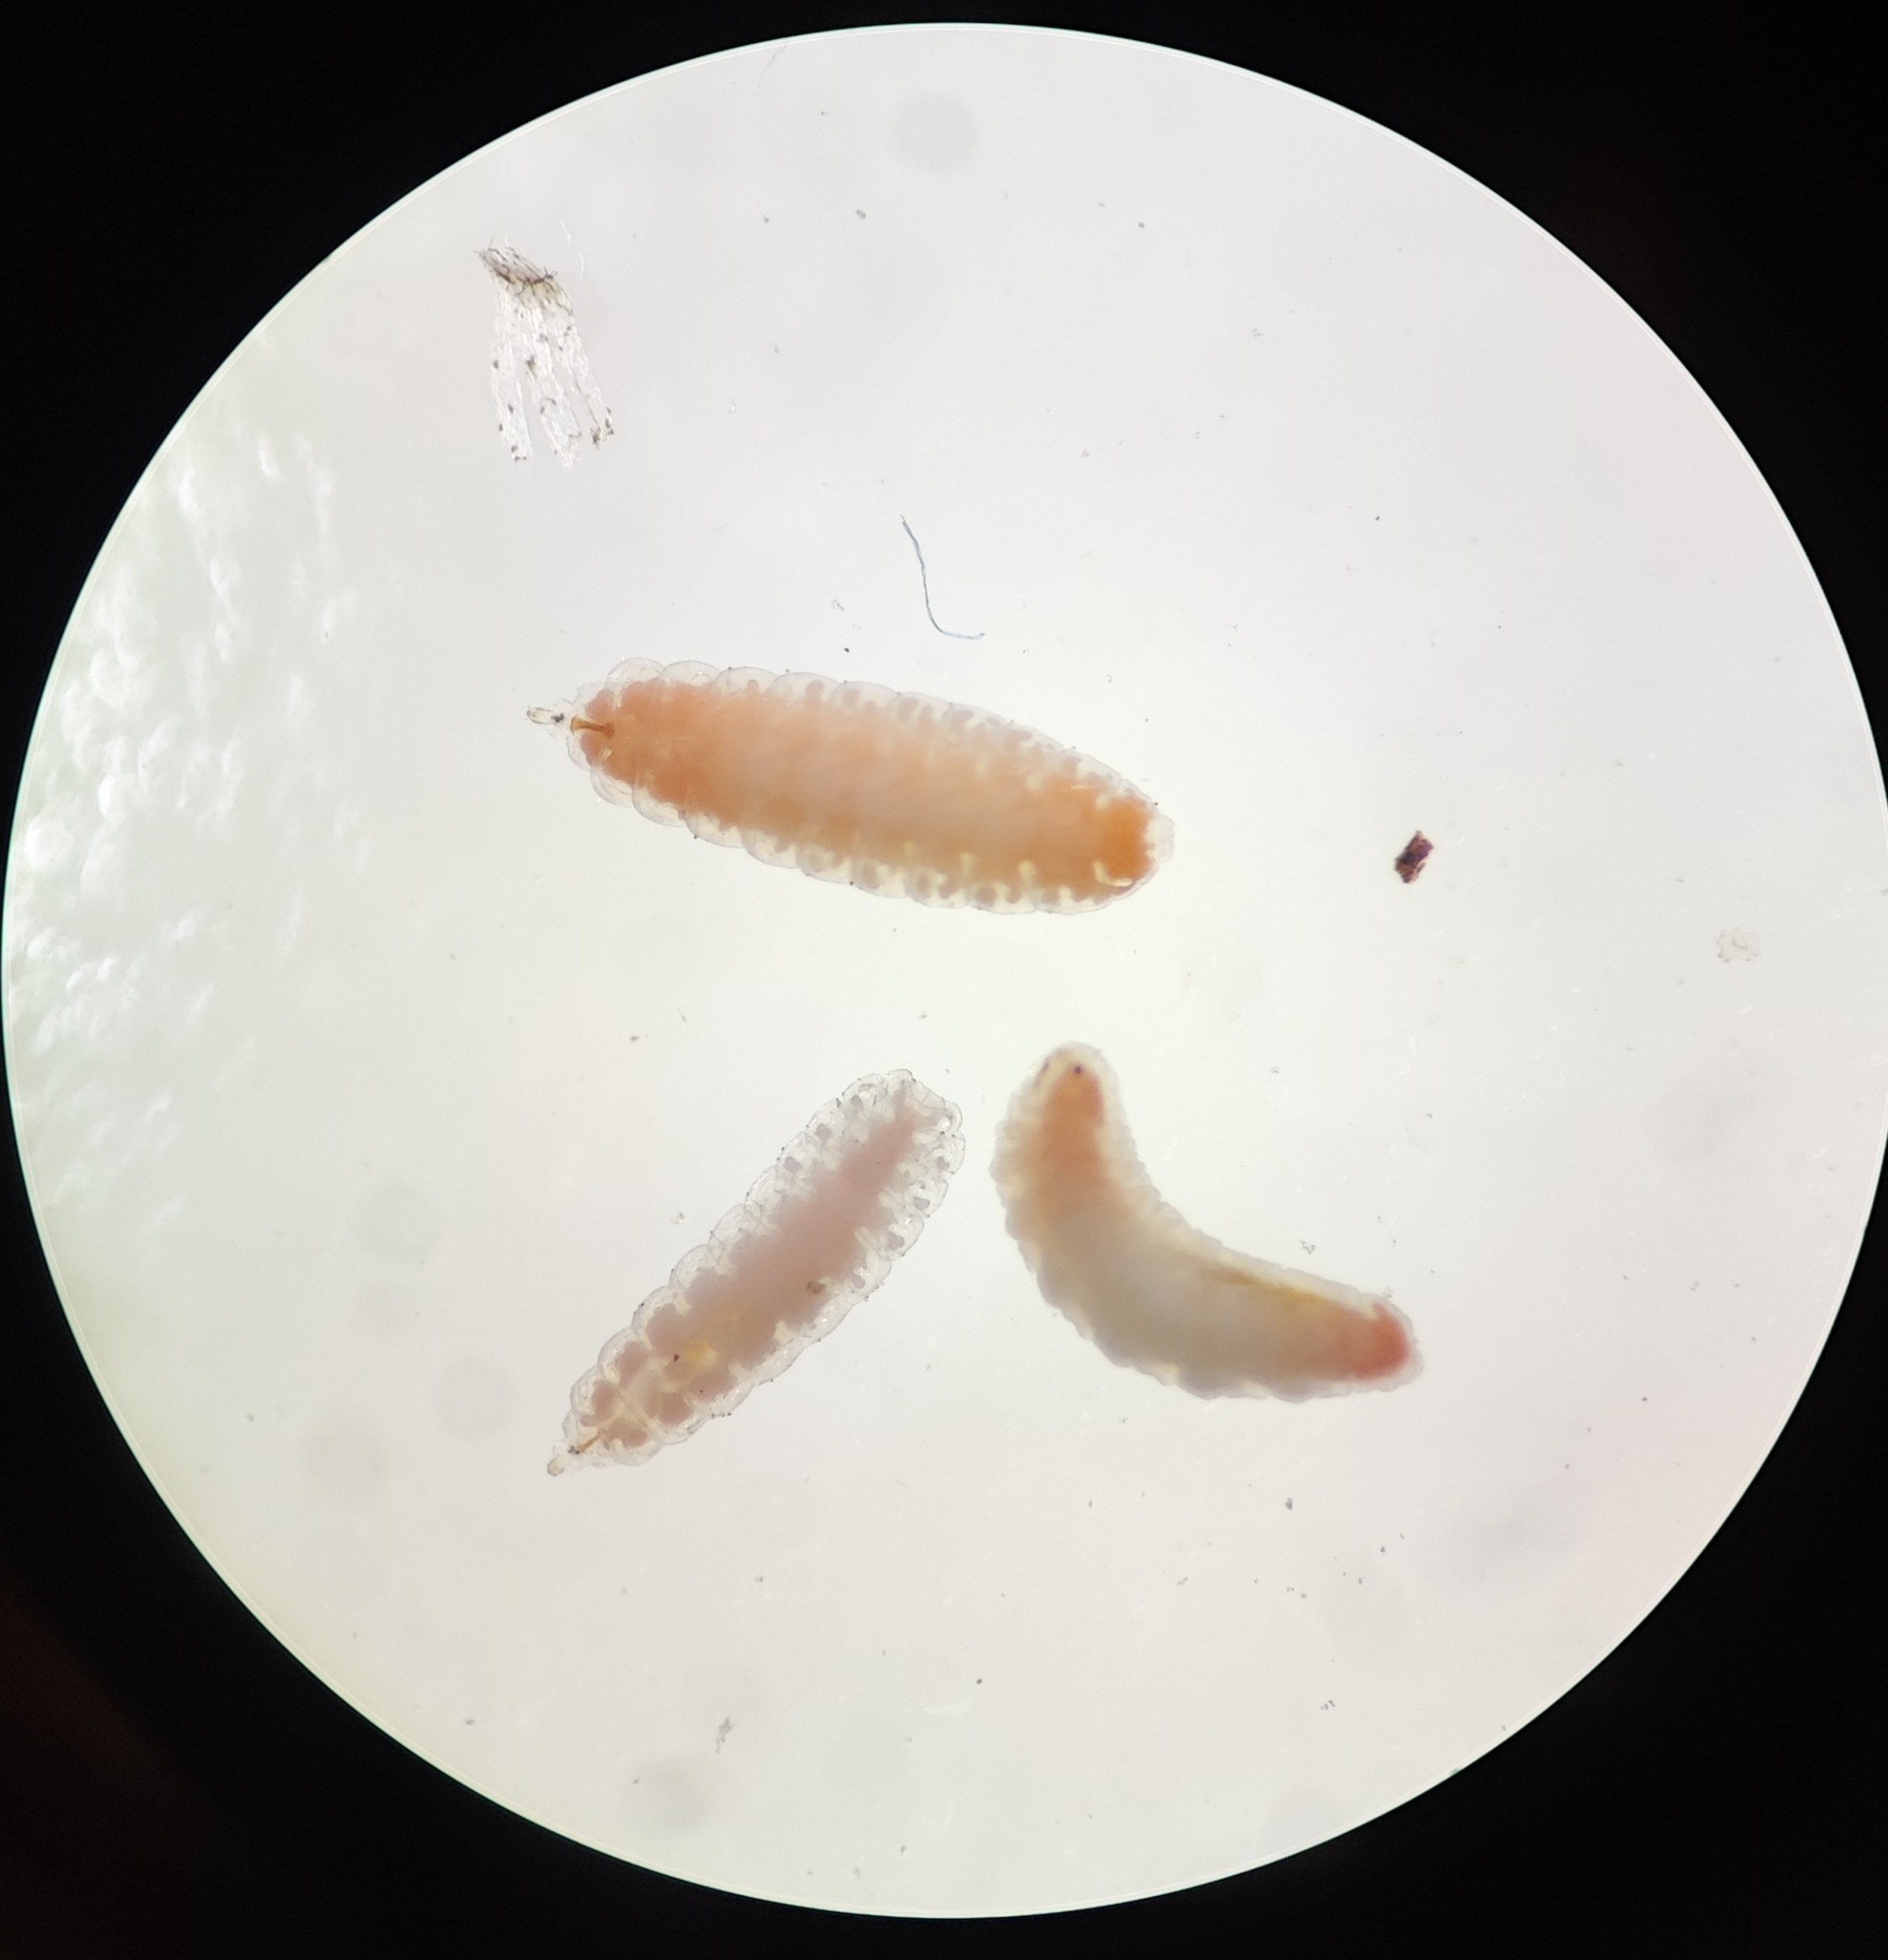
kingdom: Animalia
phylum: Arthropoda
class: Insecta
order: Diptera
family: Cecidomyiidae
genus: Dasineura
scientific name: Dasineura miki
